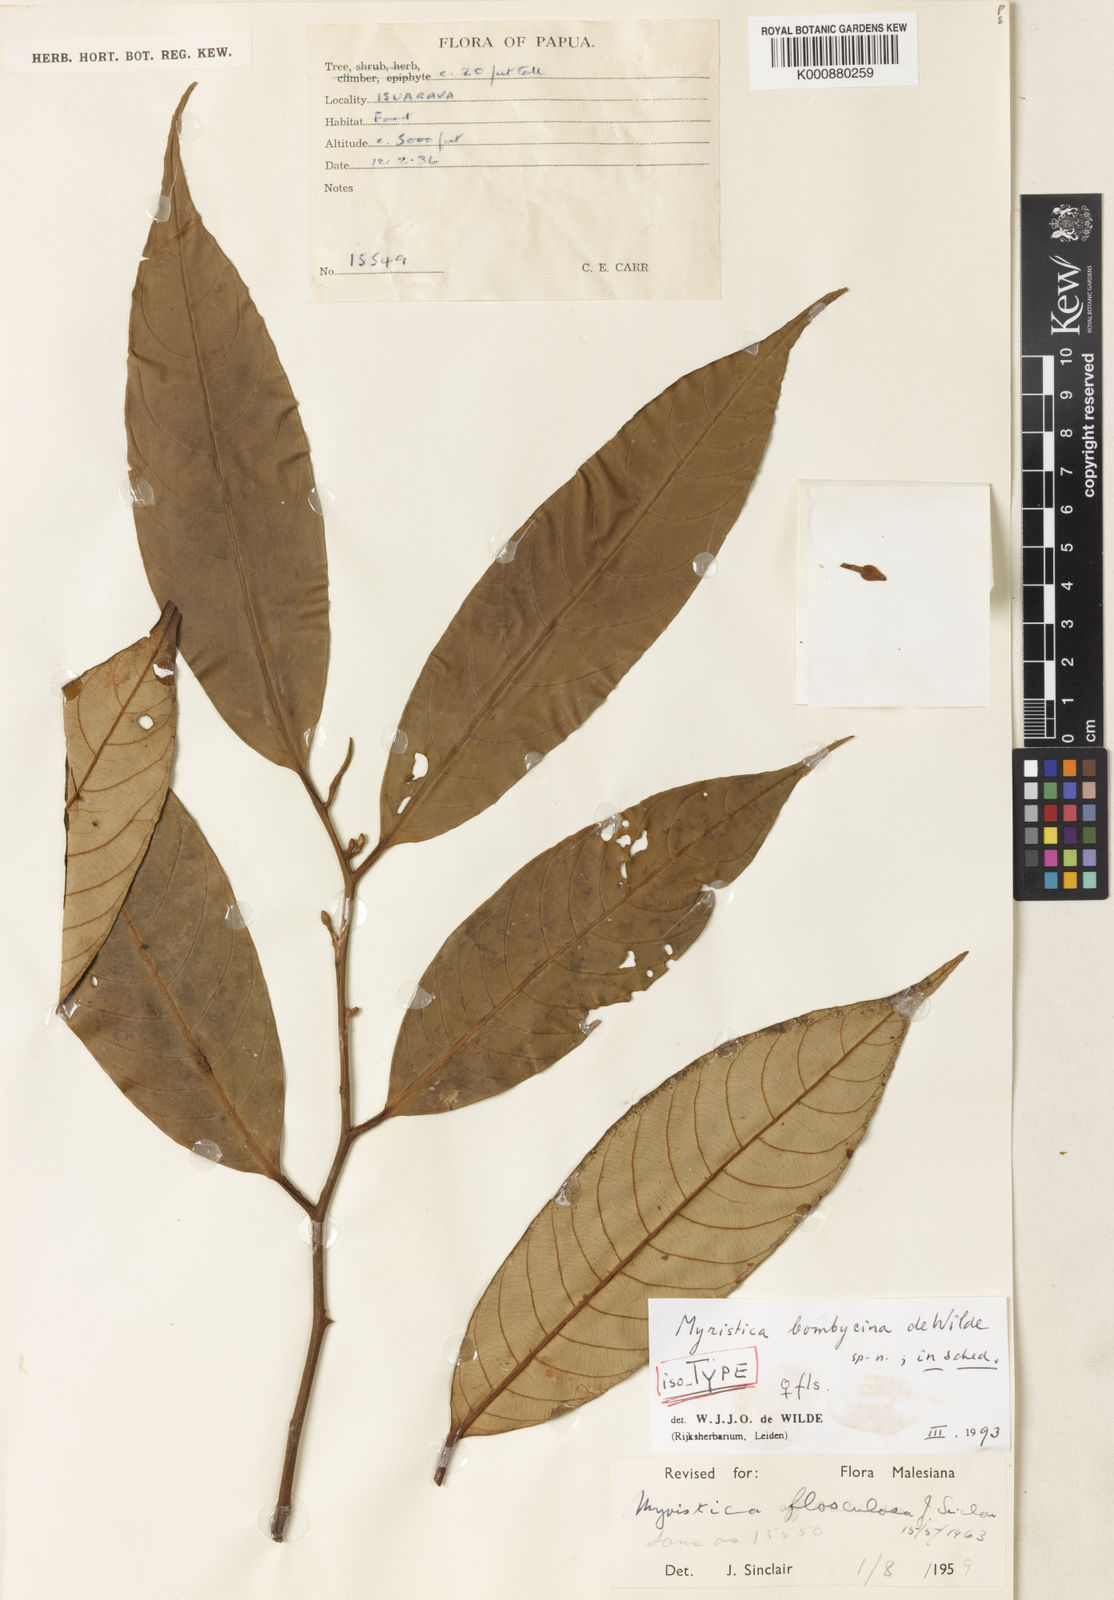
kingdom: Plantae
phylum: Tracheophyta
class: Magnoliopsida
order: Magnoliales
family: Myristicaceae
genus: Myristica
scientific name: Myristica
